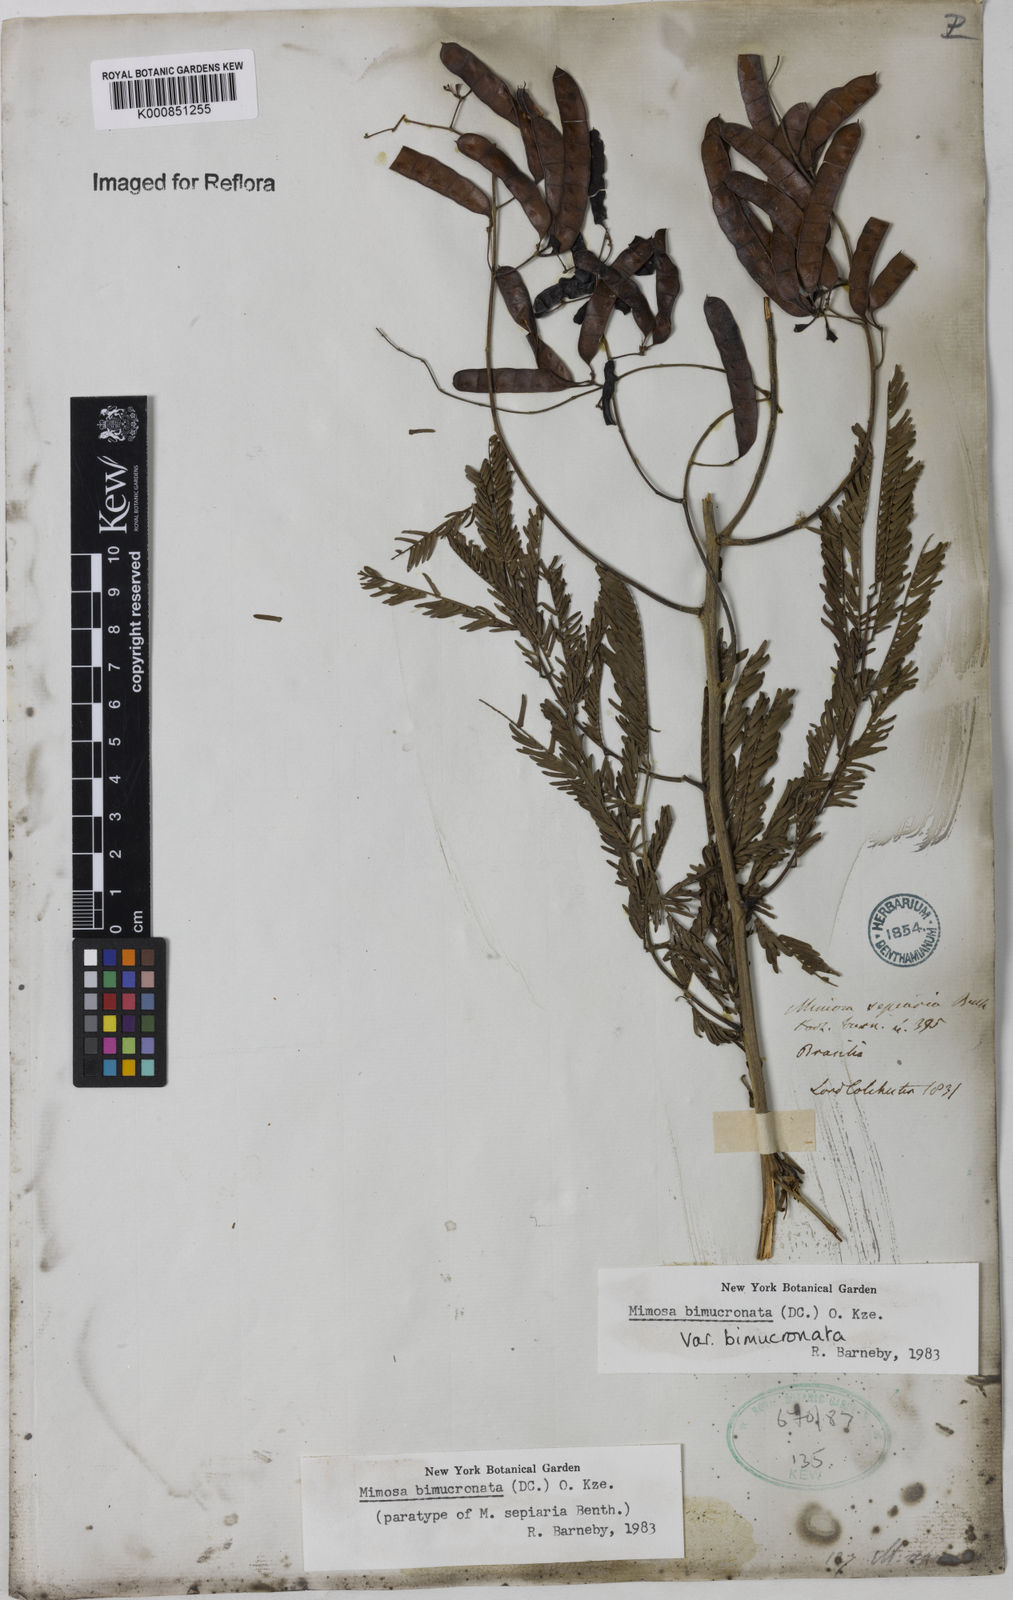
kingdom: Plantae
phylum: Tracheophyta
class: Magnoliopsida
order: Fabales
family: Fabaceae
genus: Mimosa
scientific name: Mimosa bimucronata
